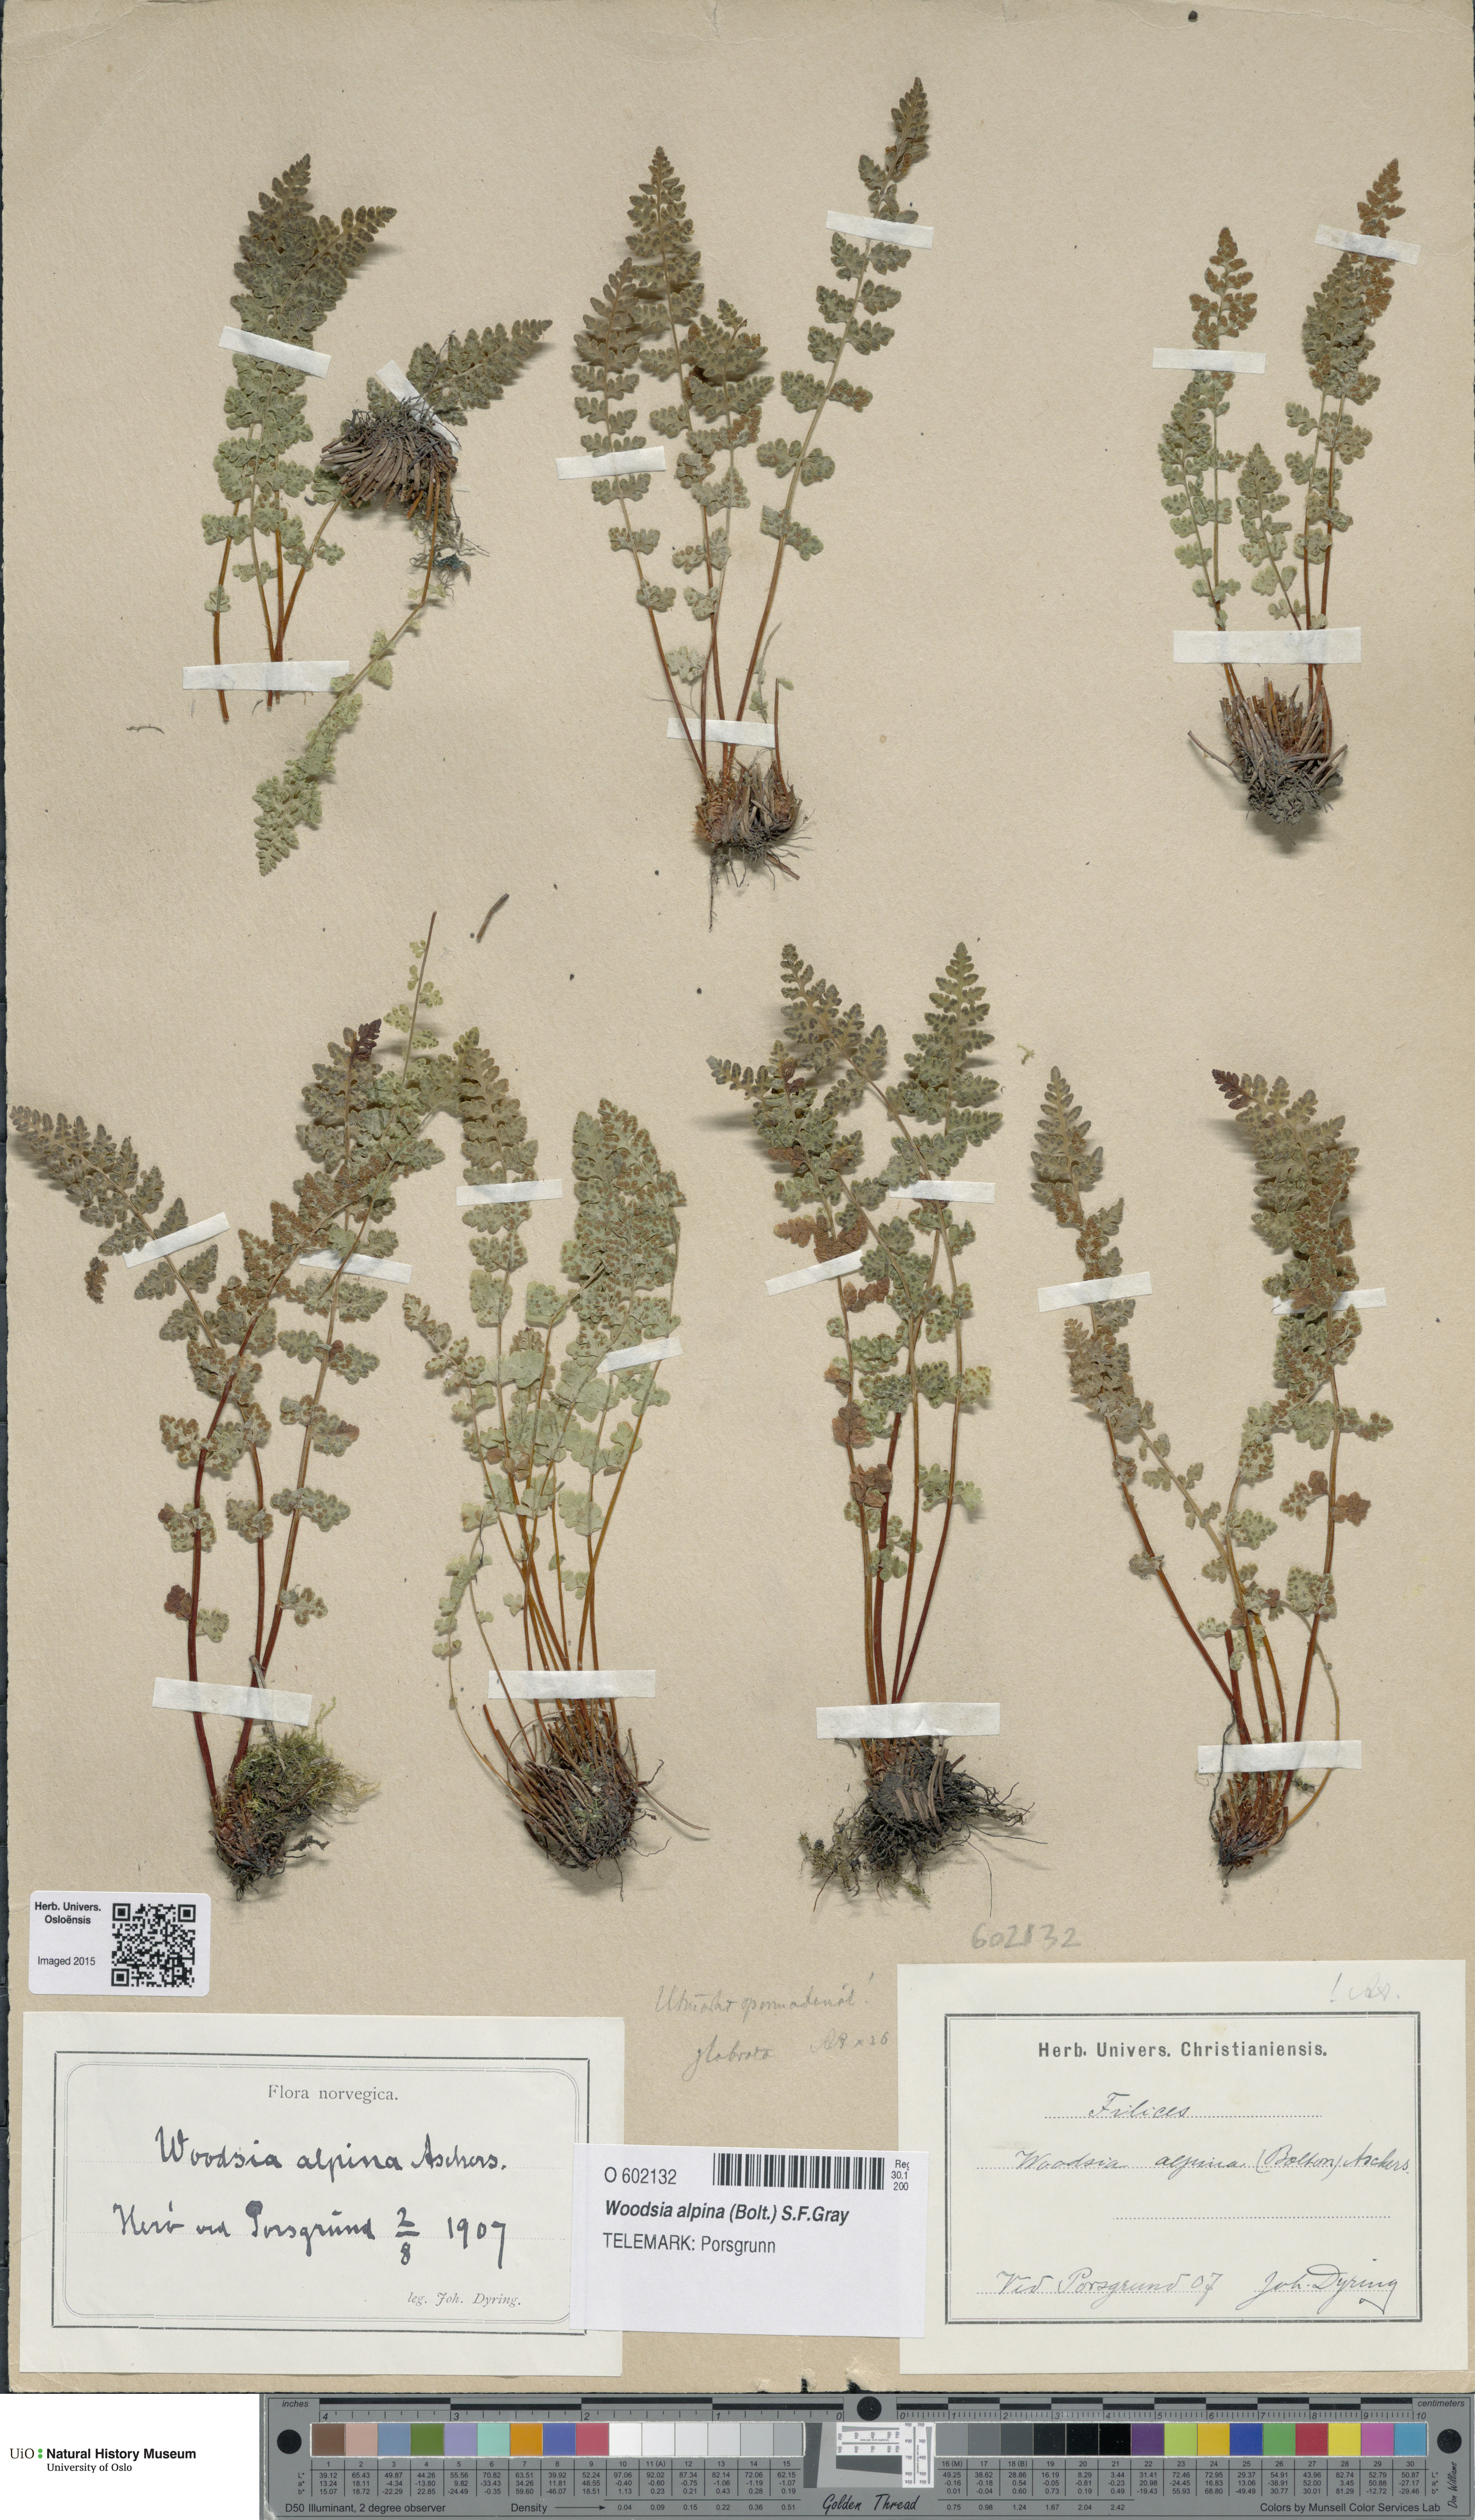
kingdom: Plantae
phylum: Tracheophyta
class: Polypodiopsida
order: Polypodiales
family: Woodsiaceae
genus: Woodsia
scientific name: Woodsia alpina
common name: Alpine woodsia
